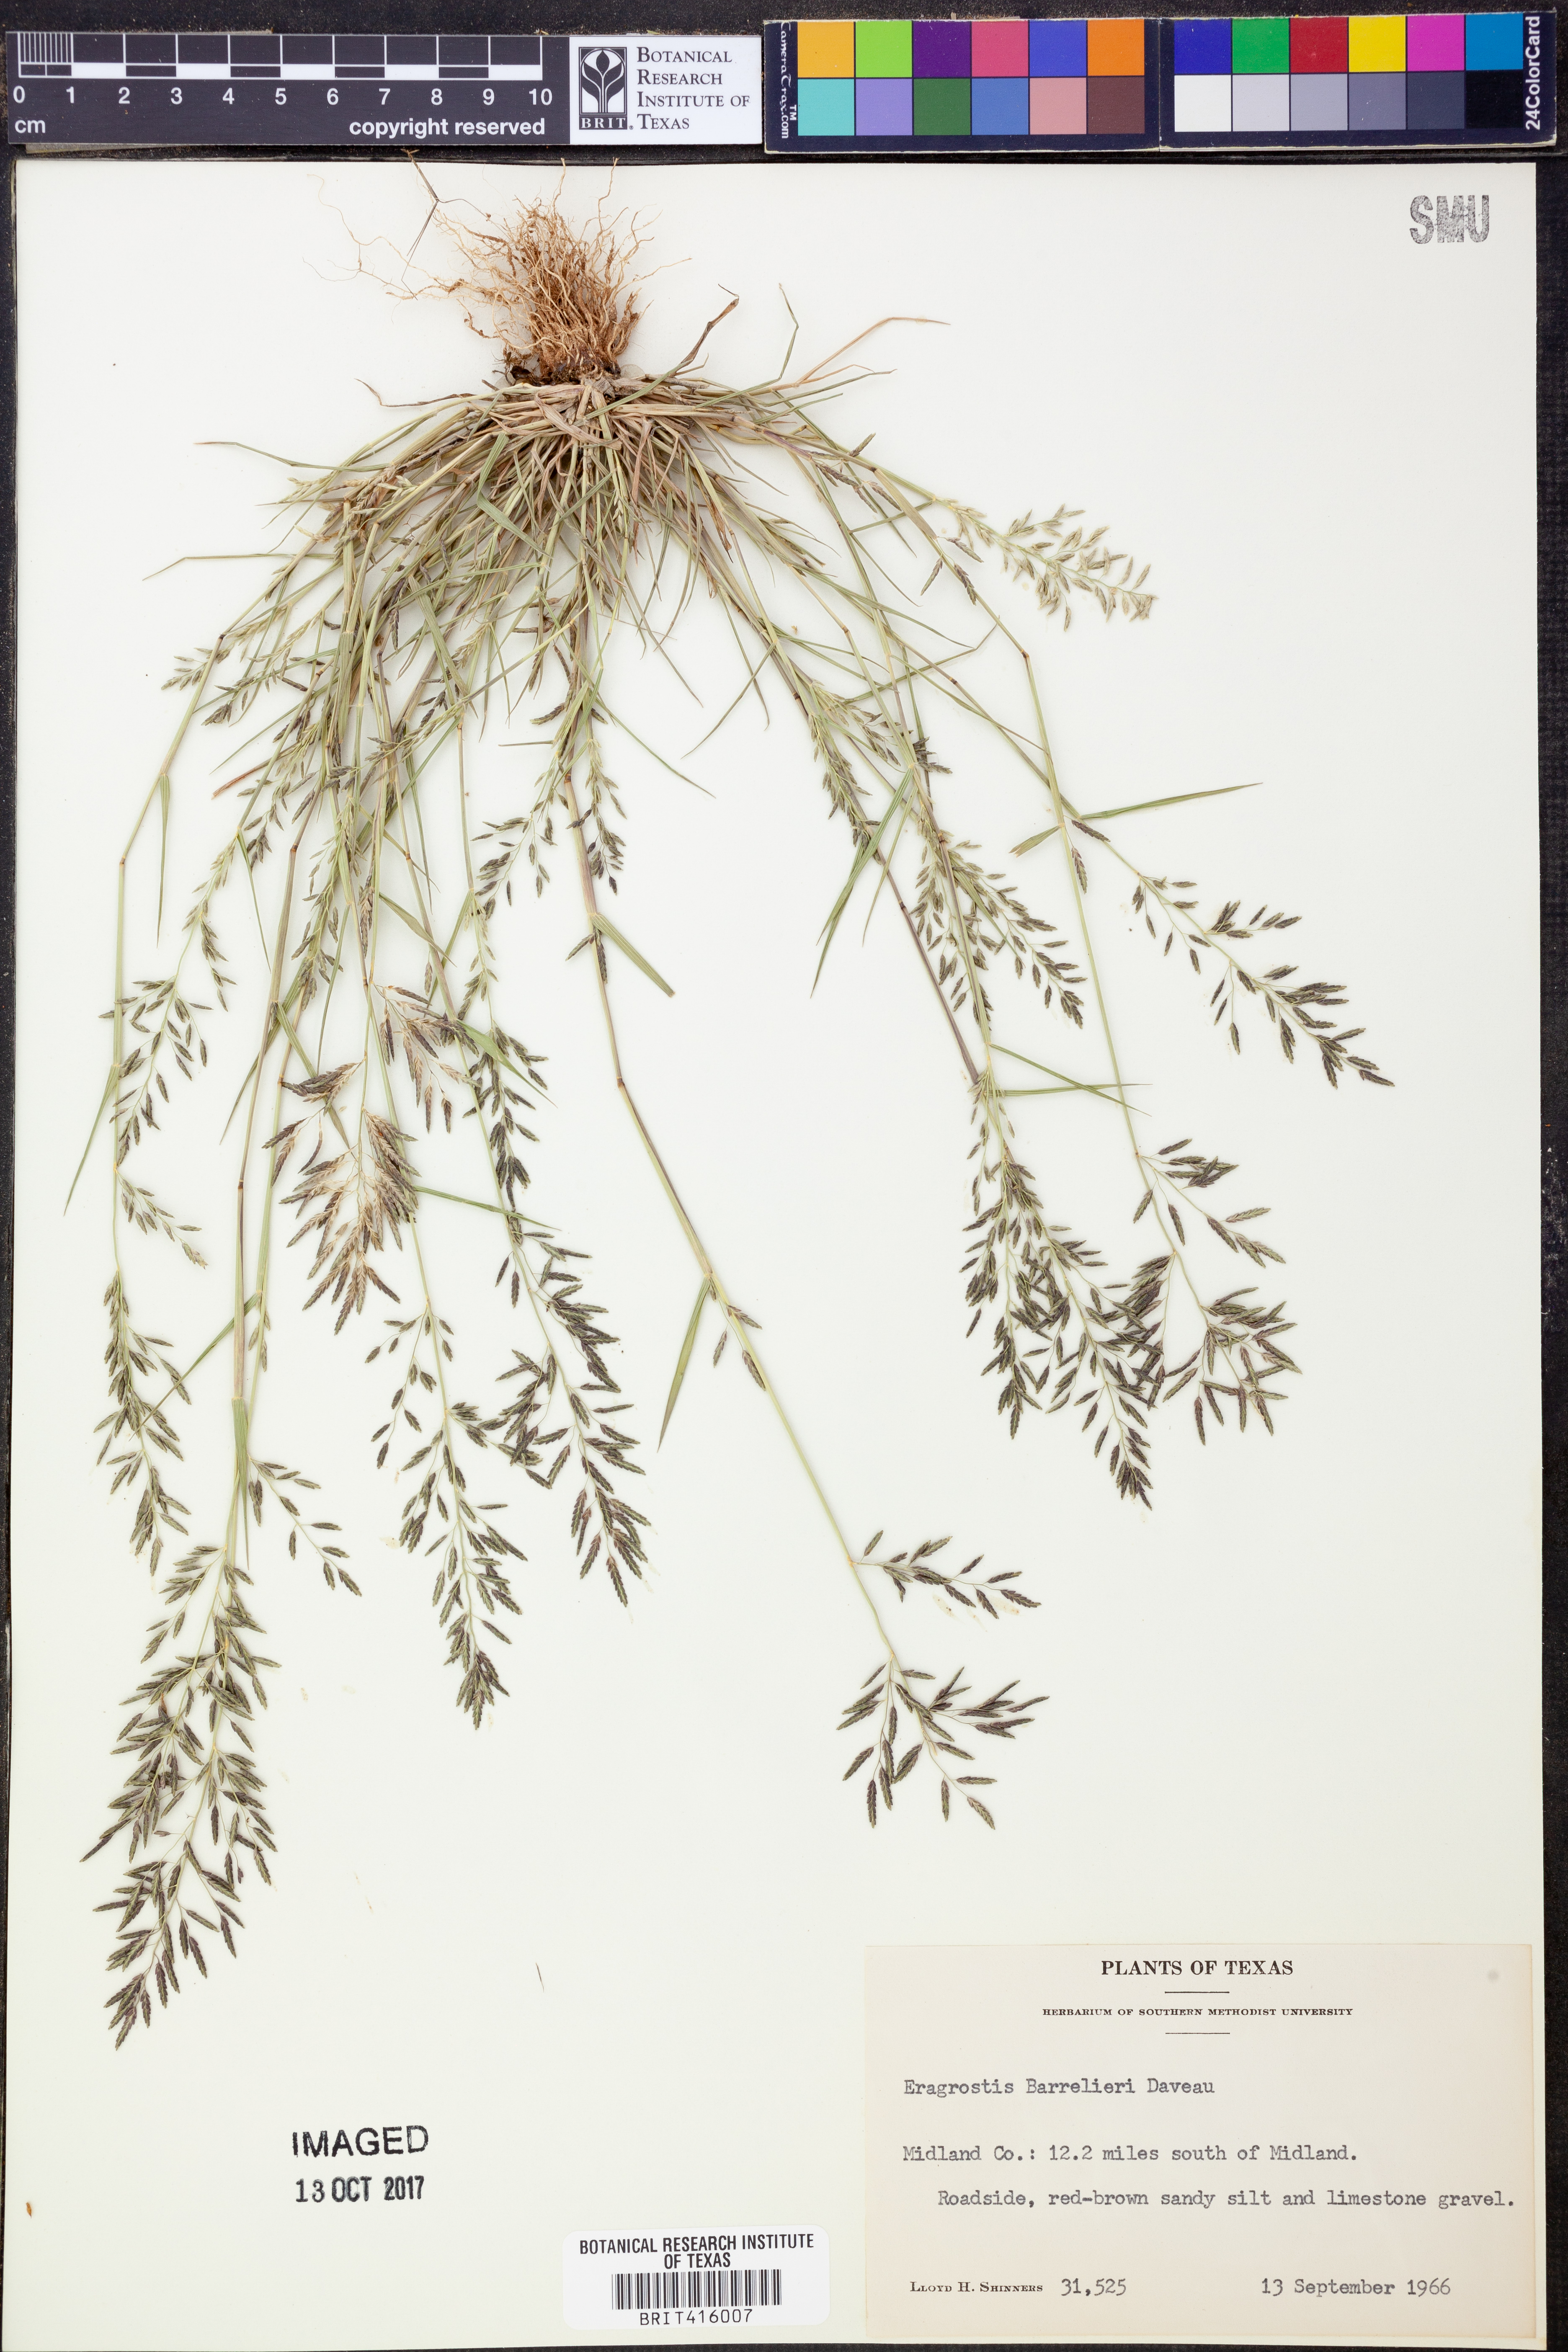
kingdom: Plantae
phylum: Tracheophyta
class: Liliopsida
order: Poales
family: Poaceae
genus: Eragrostis
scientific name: Eragrostis barrelieri
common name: Mediterranean lovegrass
